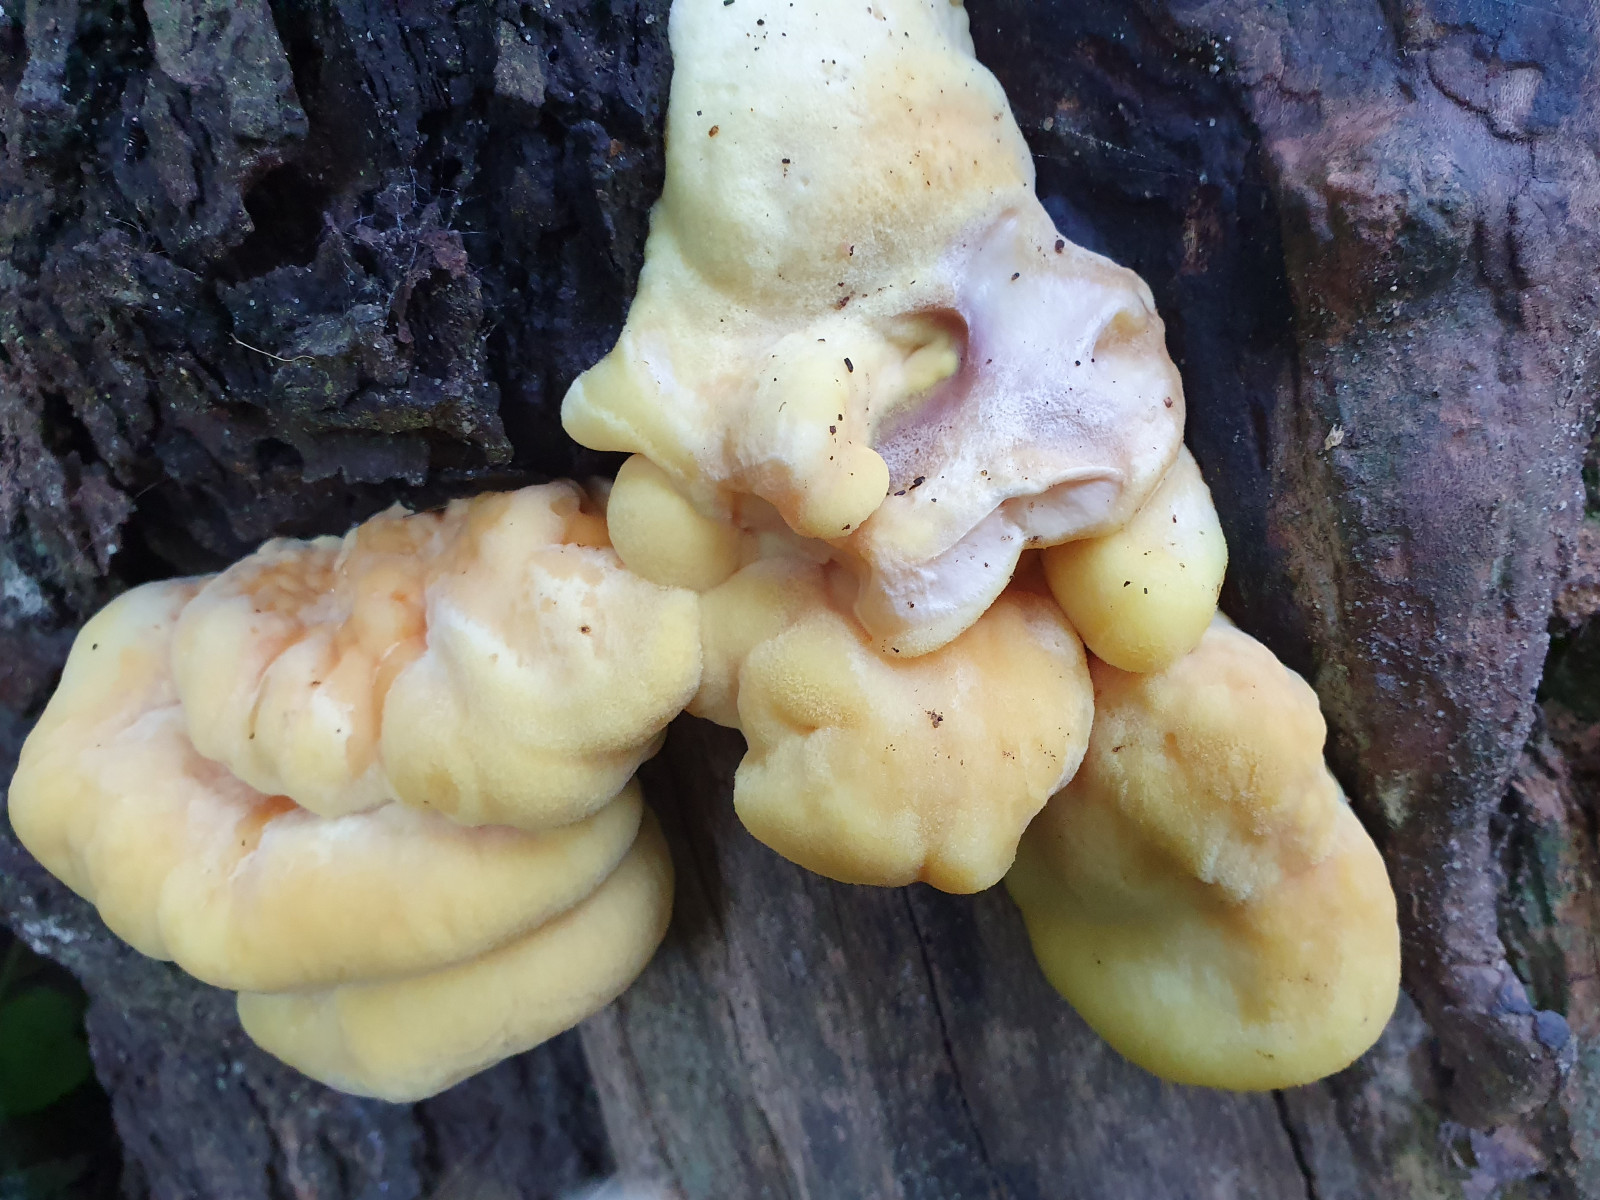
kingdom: Fungi
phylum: Basidiomycota
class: Agaricomycetes
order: Polyporales
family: Laetiporaceae
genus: Laetiporus
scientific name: Laetiporus sulphureus
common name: svovlporesvamp
